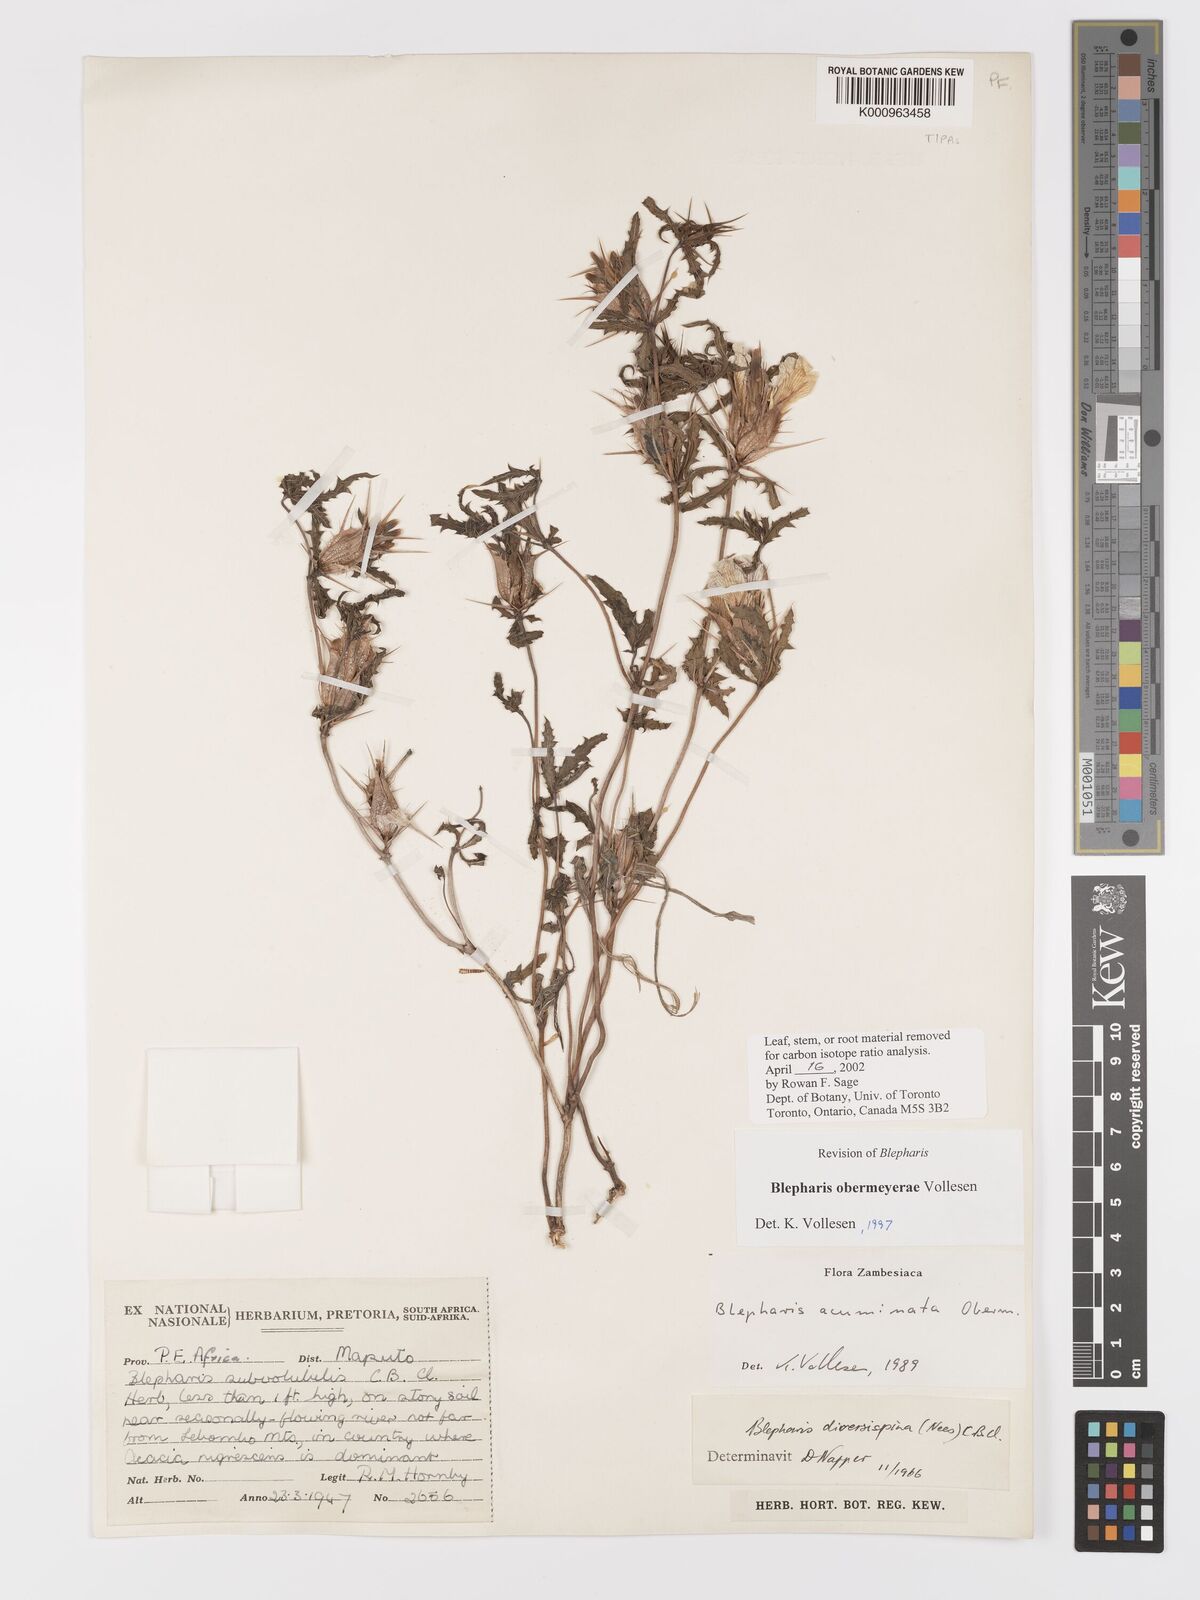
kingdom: Plantae
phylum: Tracheophyta
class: Magnoliopsida
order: Lamiales
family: Acanthaceae
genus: Blepharis
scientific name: Blepharis obermeyerae
